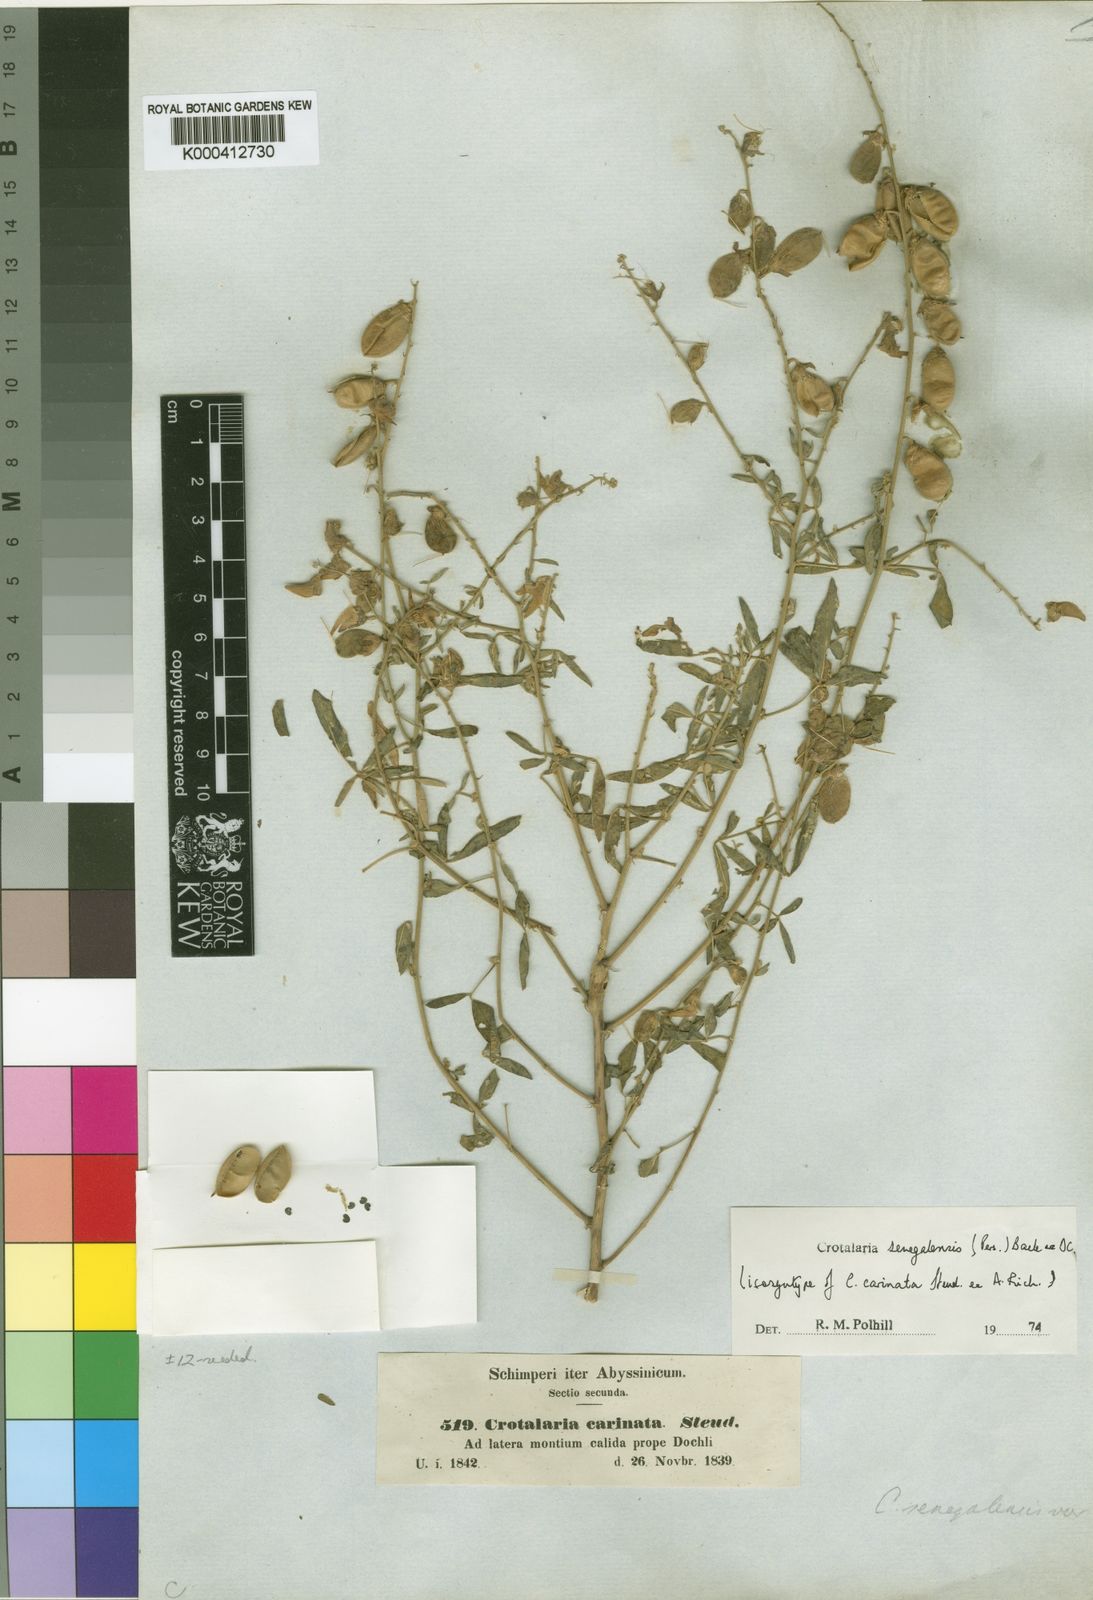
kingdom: Plantae
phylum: Tracheophyta
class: Magnoliopsida
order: Fabales
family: Fabaceae
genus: Crotalaria
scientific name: Crotalaria senegalensis
